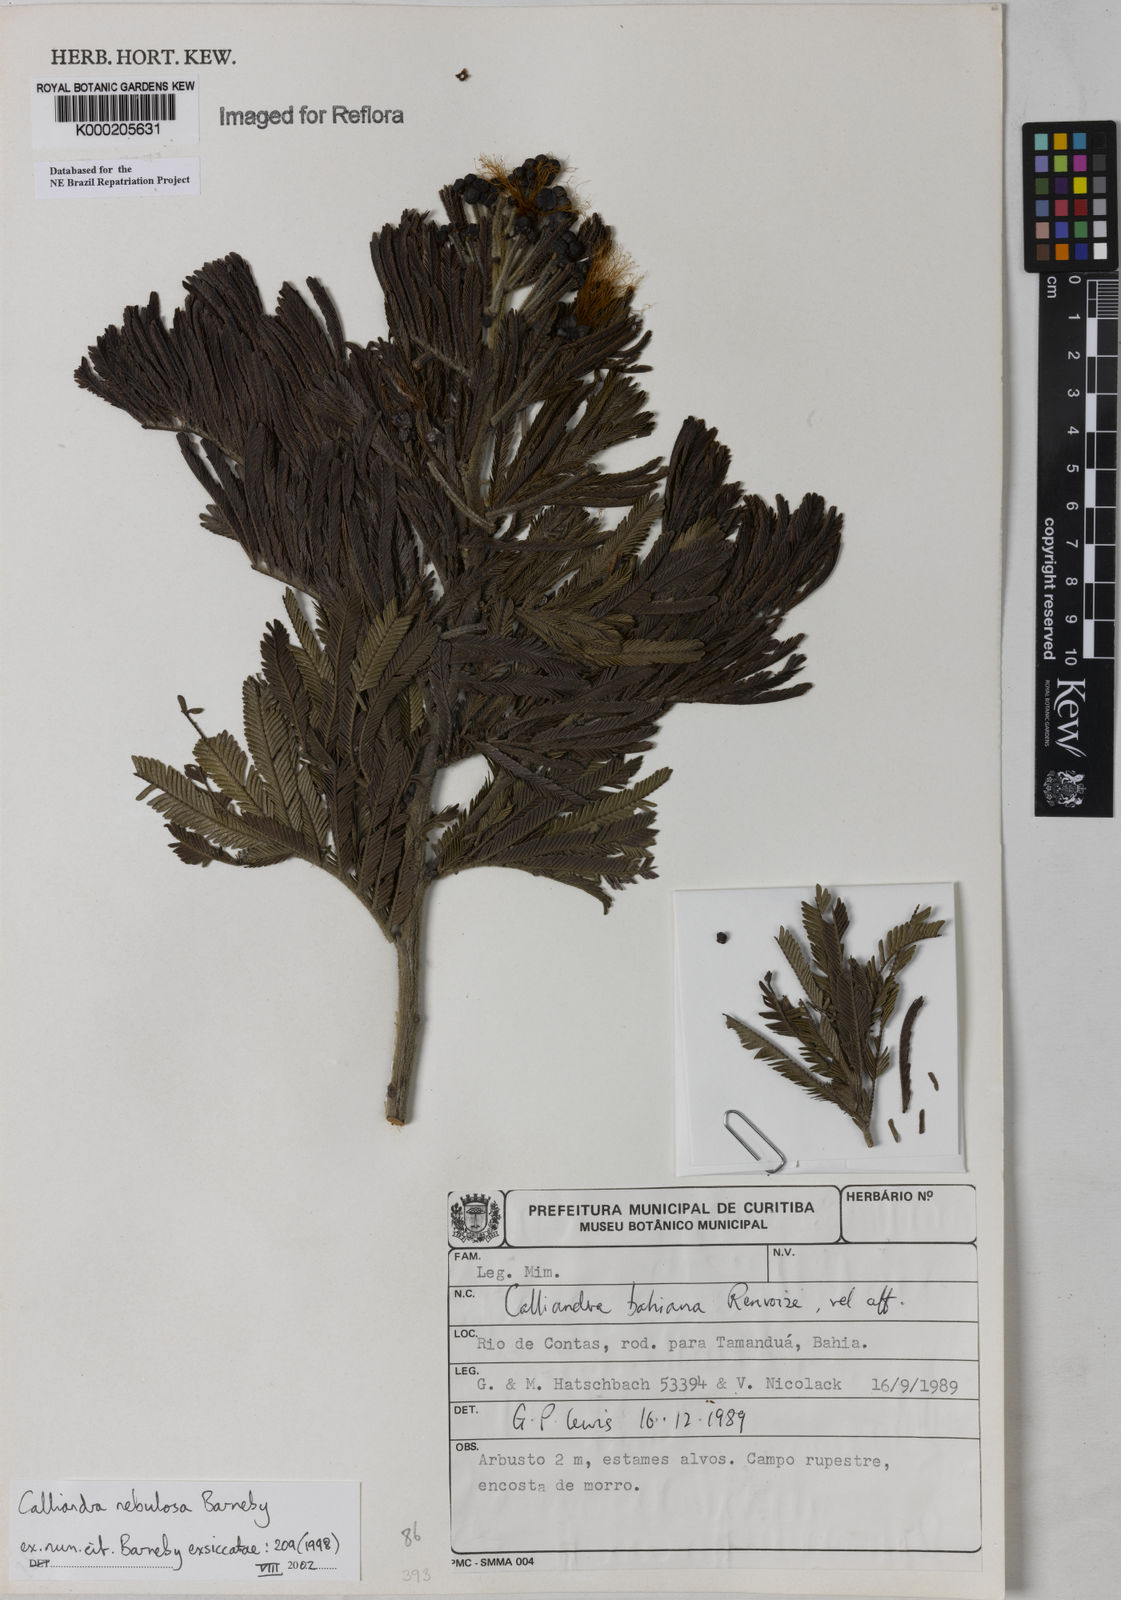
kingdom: Plantae
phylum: Tracheophyta
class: Magnoliopsida
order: Fabales
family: Fabaceae
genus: Calliandra
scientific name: Calliandra nebulosa
